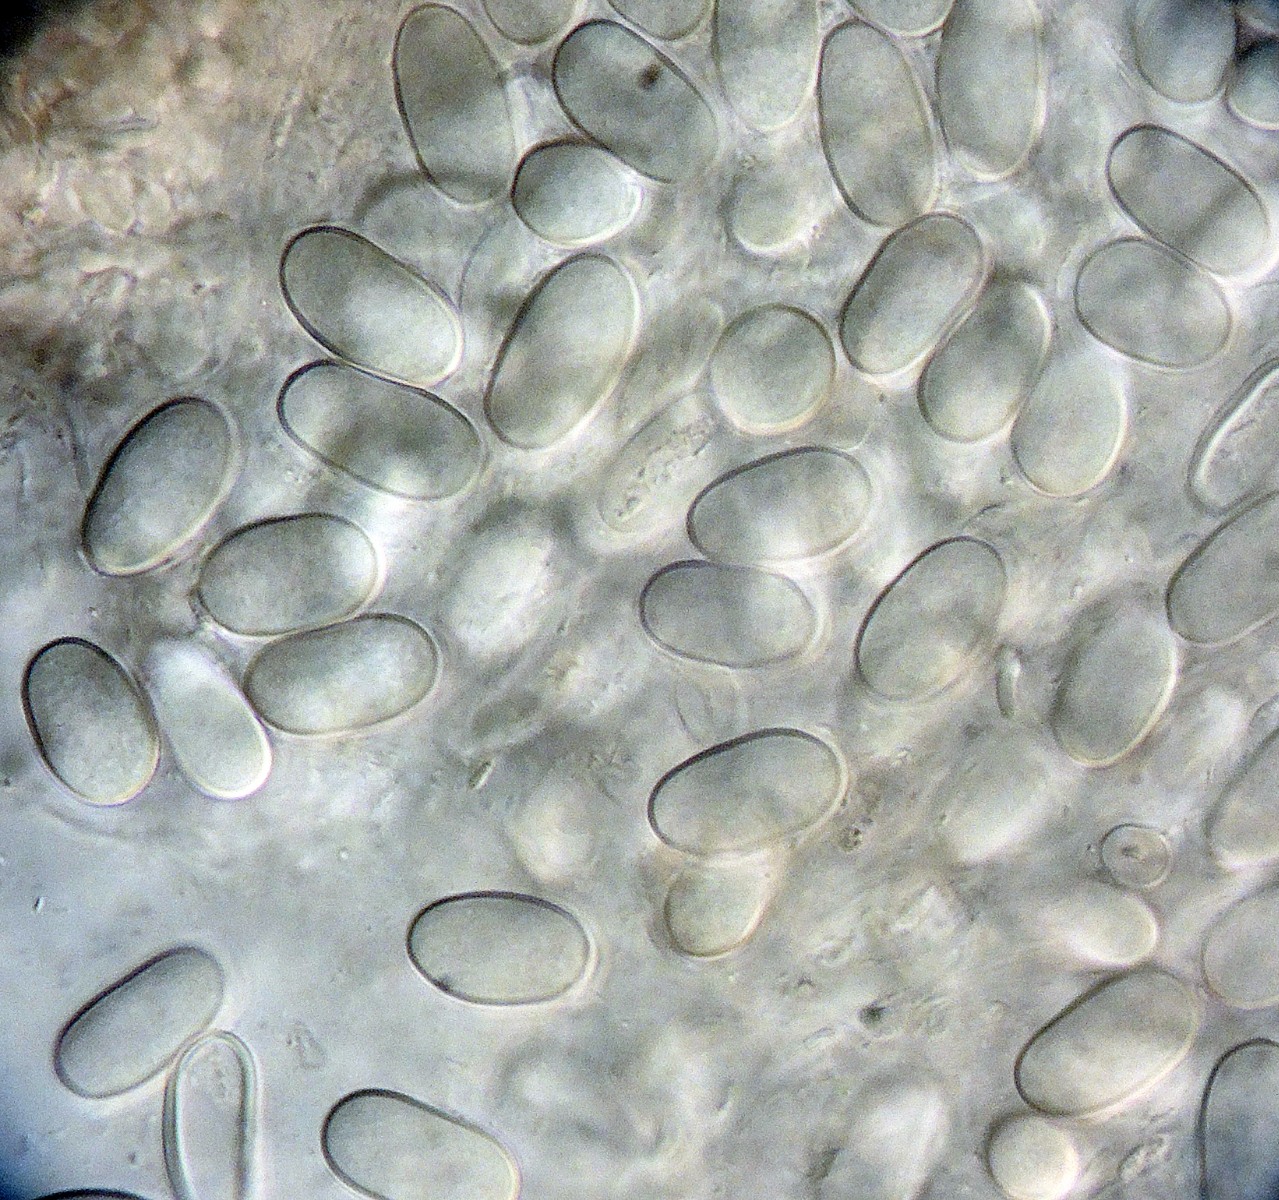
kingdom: Fungi
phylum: Basidiomycota
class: Agaricomycetes
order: Agaricales
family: Agaricaceae
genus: Cyathus
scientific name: Cyathus striatus
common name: stribet redesvamp
